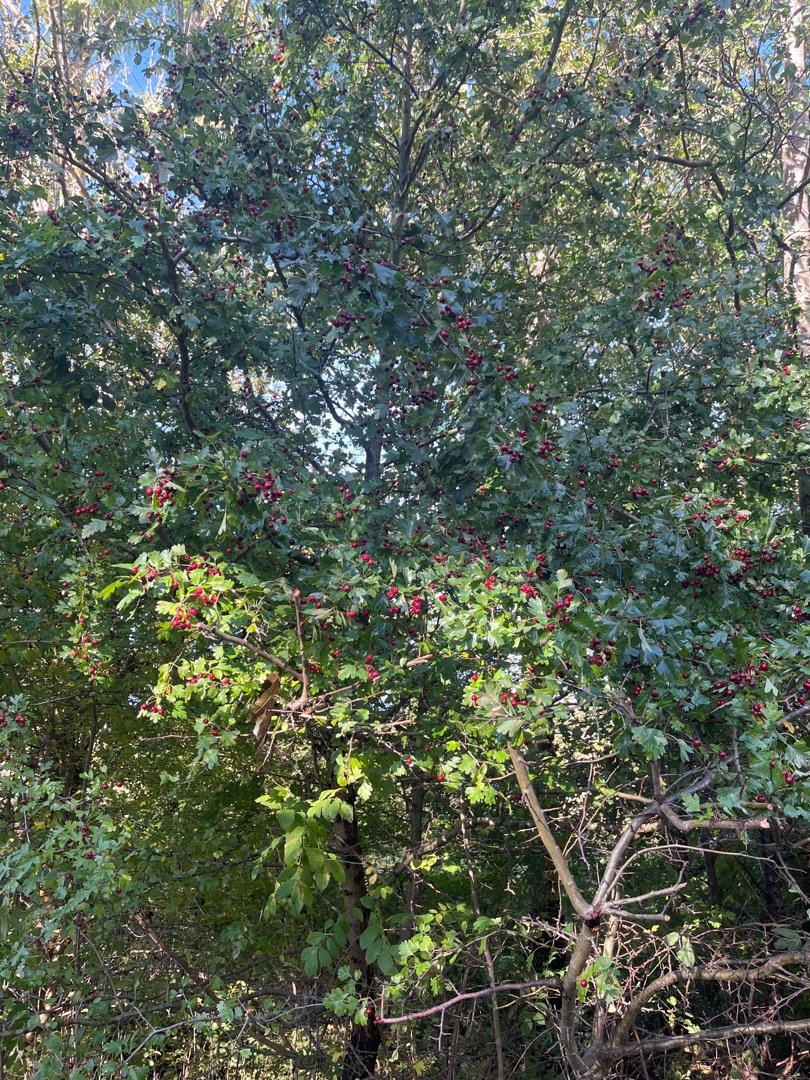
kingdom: Plantae
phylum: Tracheophyta
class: Magnoliopsida
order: Rosales
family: Rosaceae
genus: Crataegus
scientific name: Crataegus monogyna
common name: Engriflet hvidtjørn
